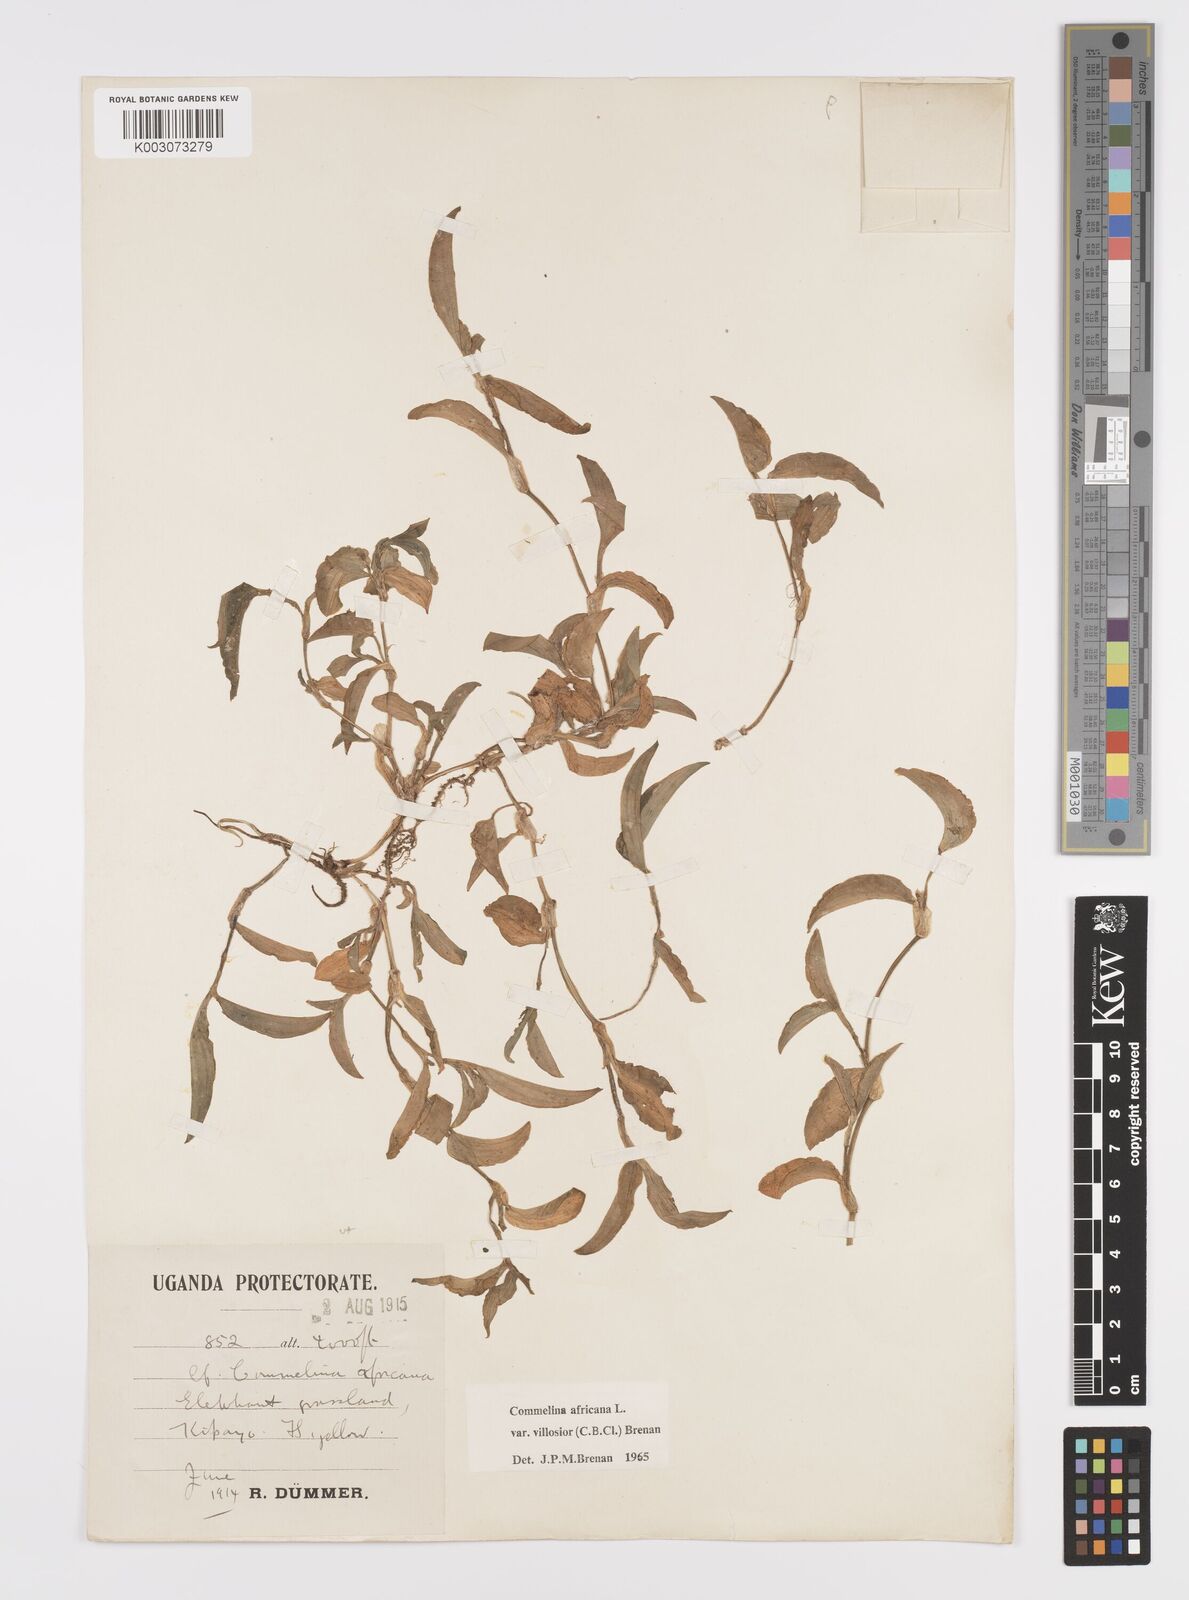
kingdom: Plantae
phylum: Tracheophyta
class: Liliopsida
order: Commelinales
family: Commelinaceae
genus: Commelina
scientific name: Commelina africana
